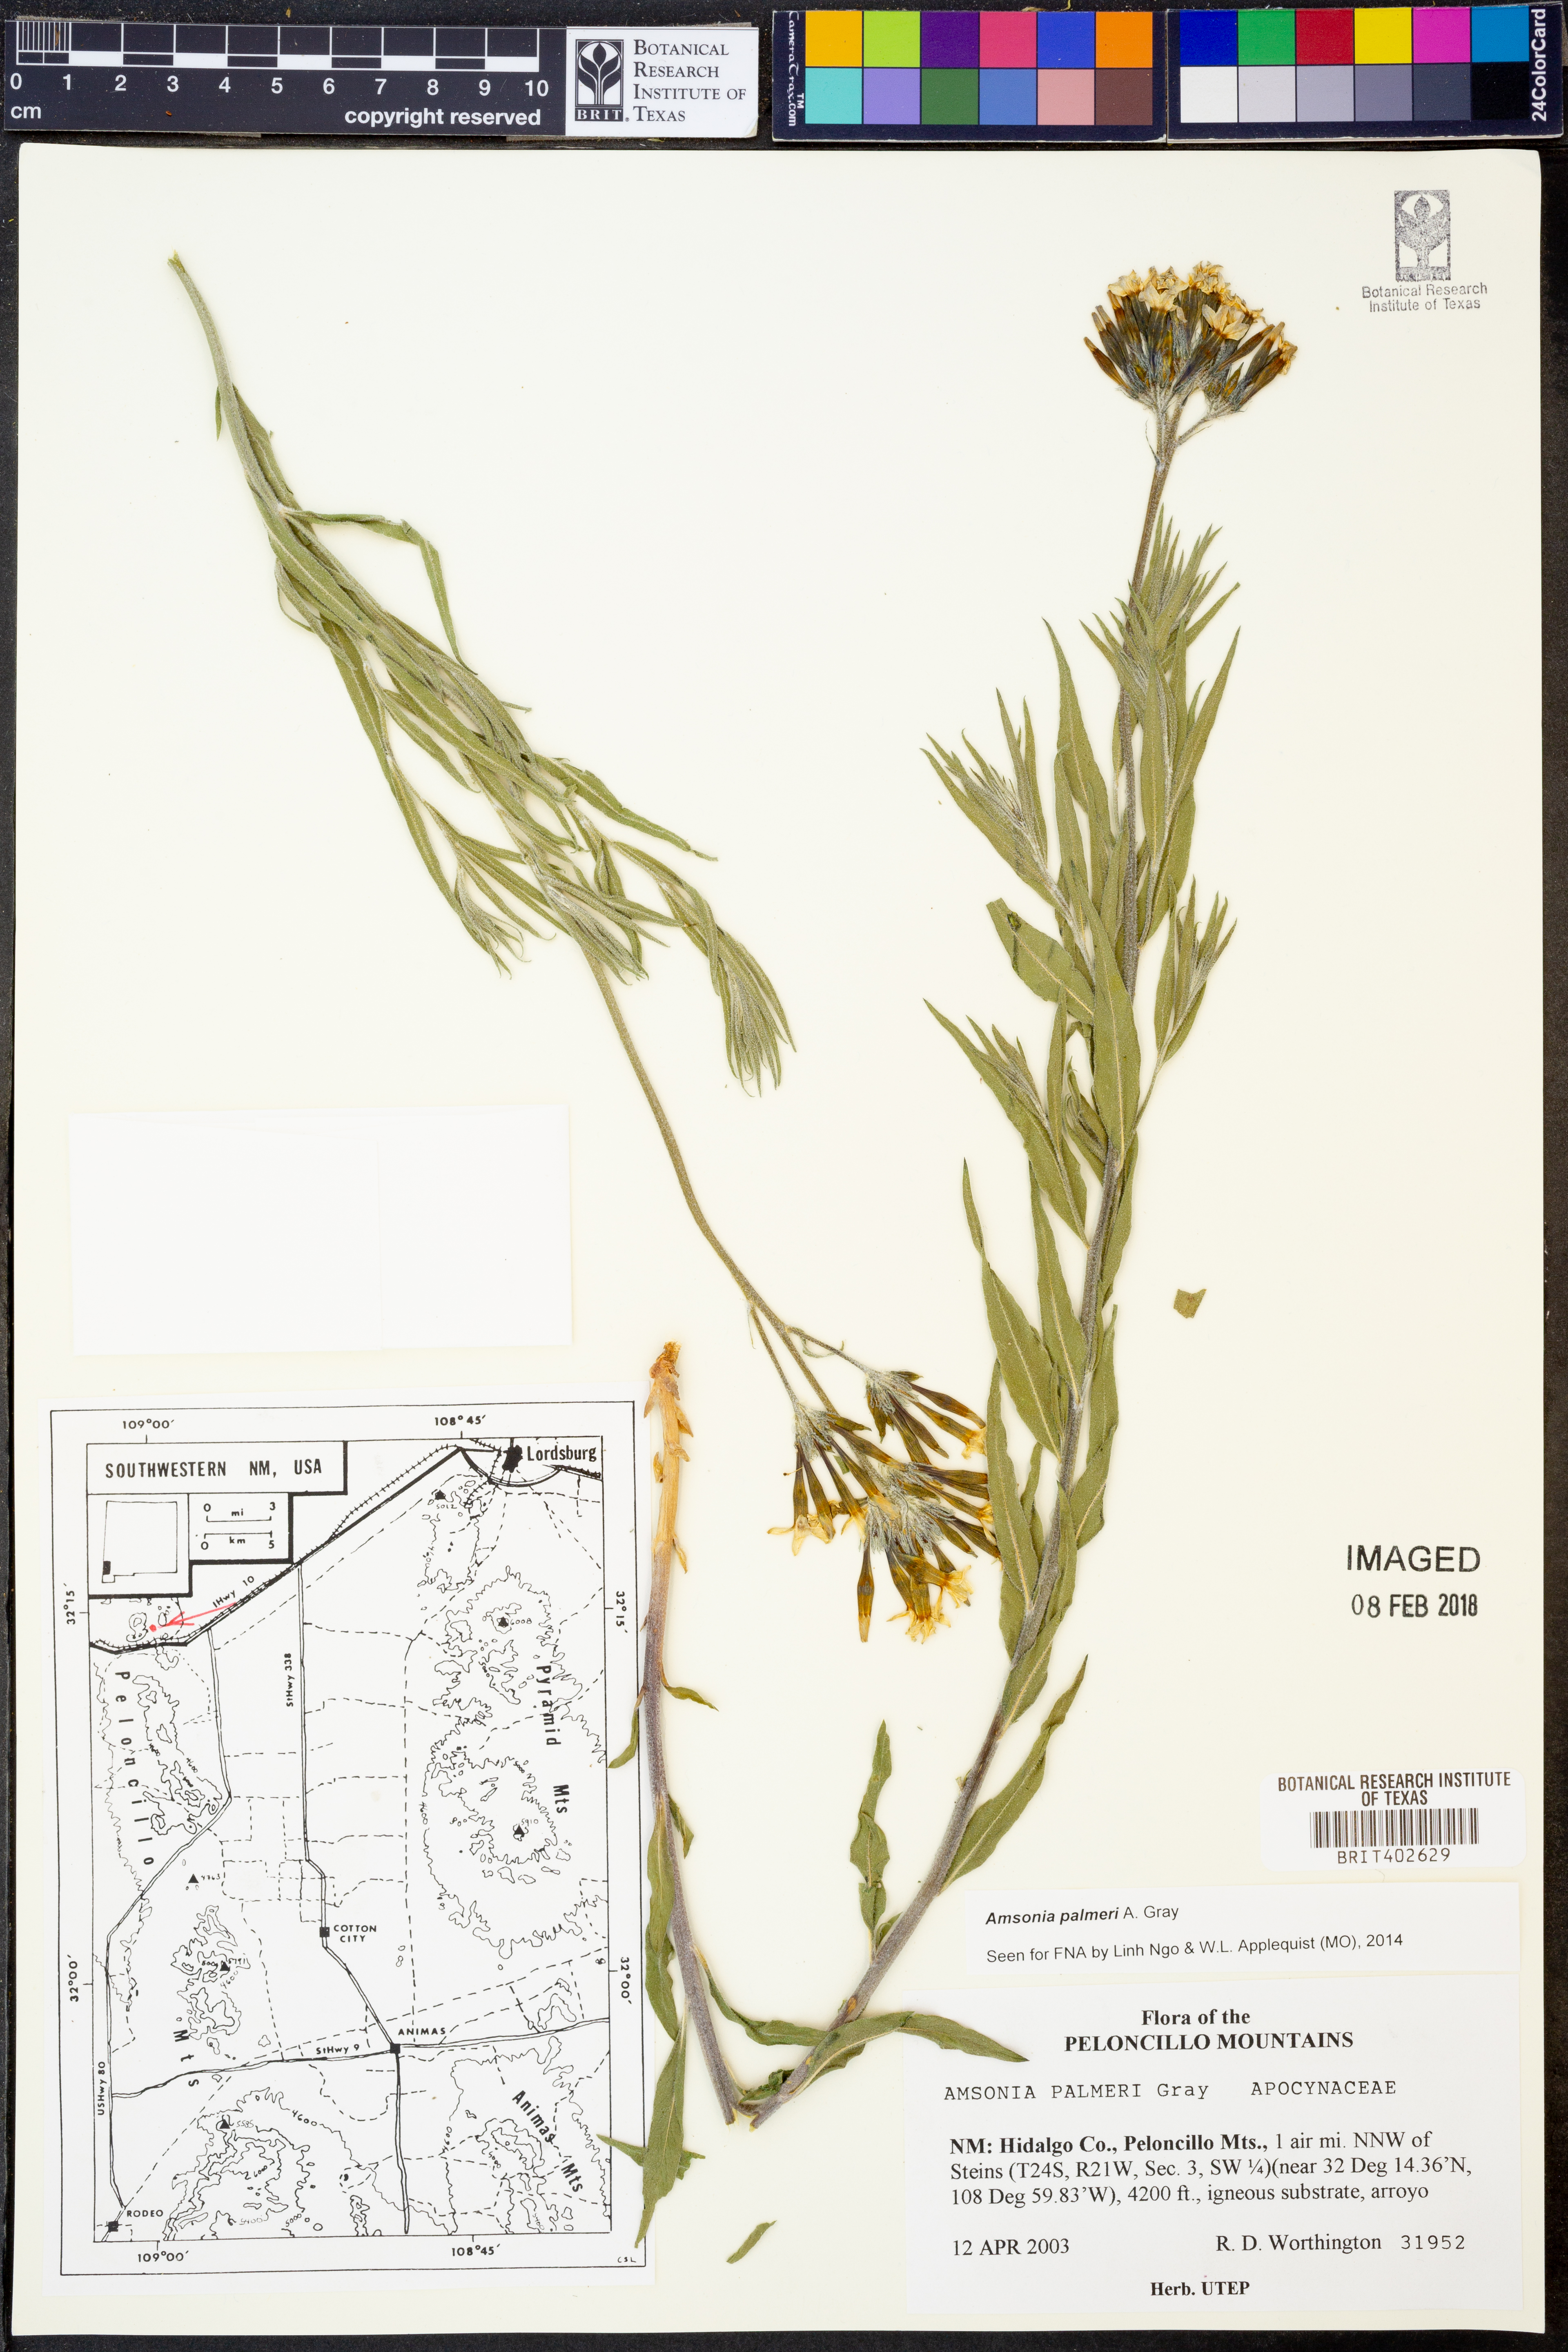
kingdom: Plantae
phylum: Tracheophyta
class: Magnoliopsida
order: Gentianales
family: Apocynaceae
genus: Amsonia
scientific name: Amsonia palmeri
